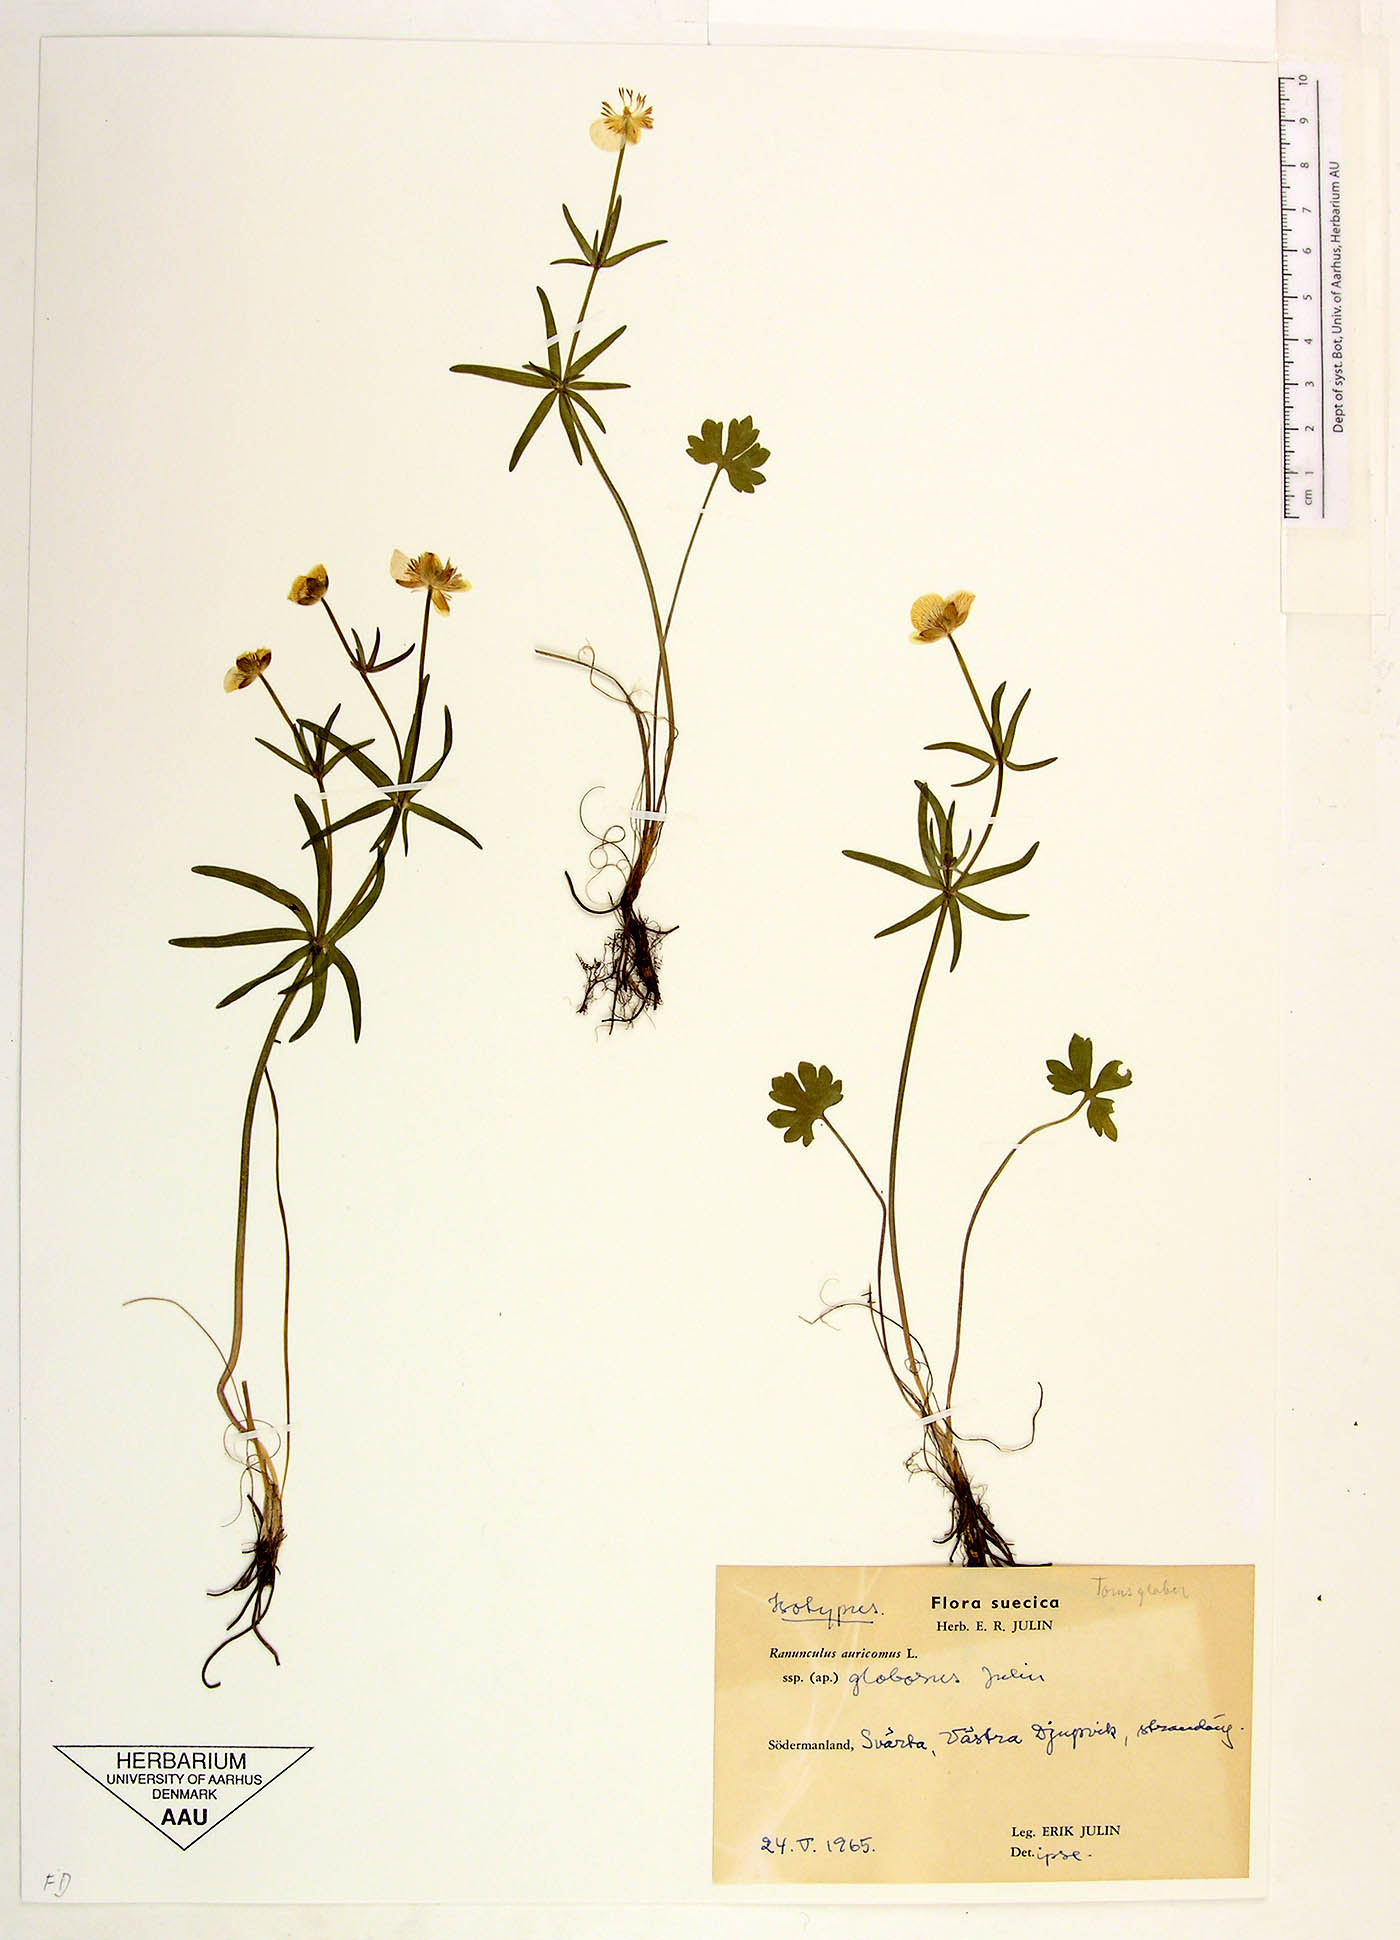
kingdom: Plantae
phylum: Tracheophyta
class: Magnoliopsida
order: Ranunculales
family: Ranunculaceae
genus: Ranunculus
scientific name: Ranunculus globosus
